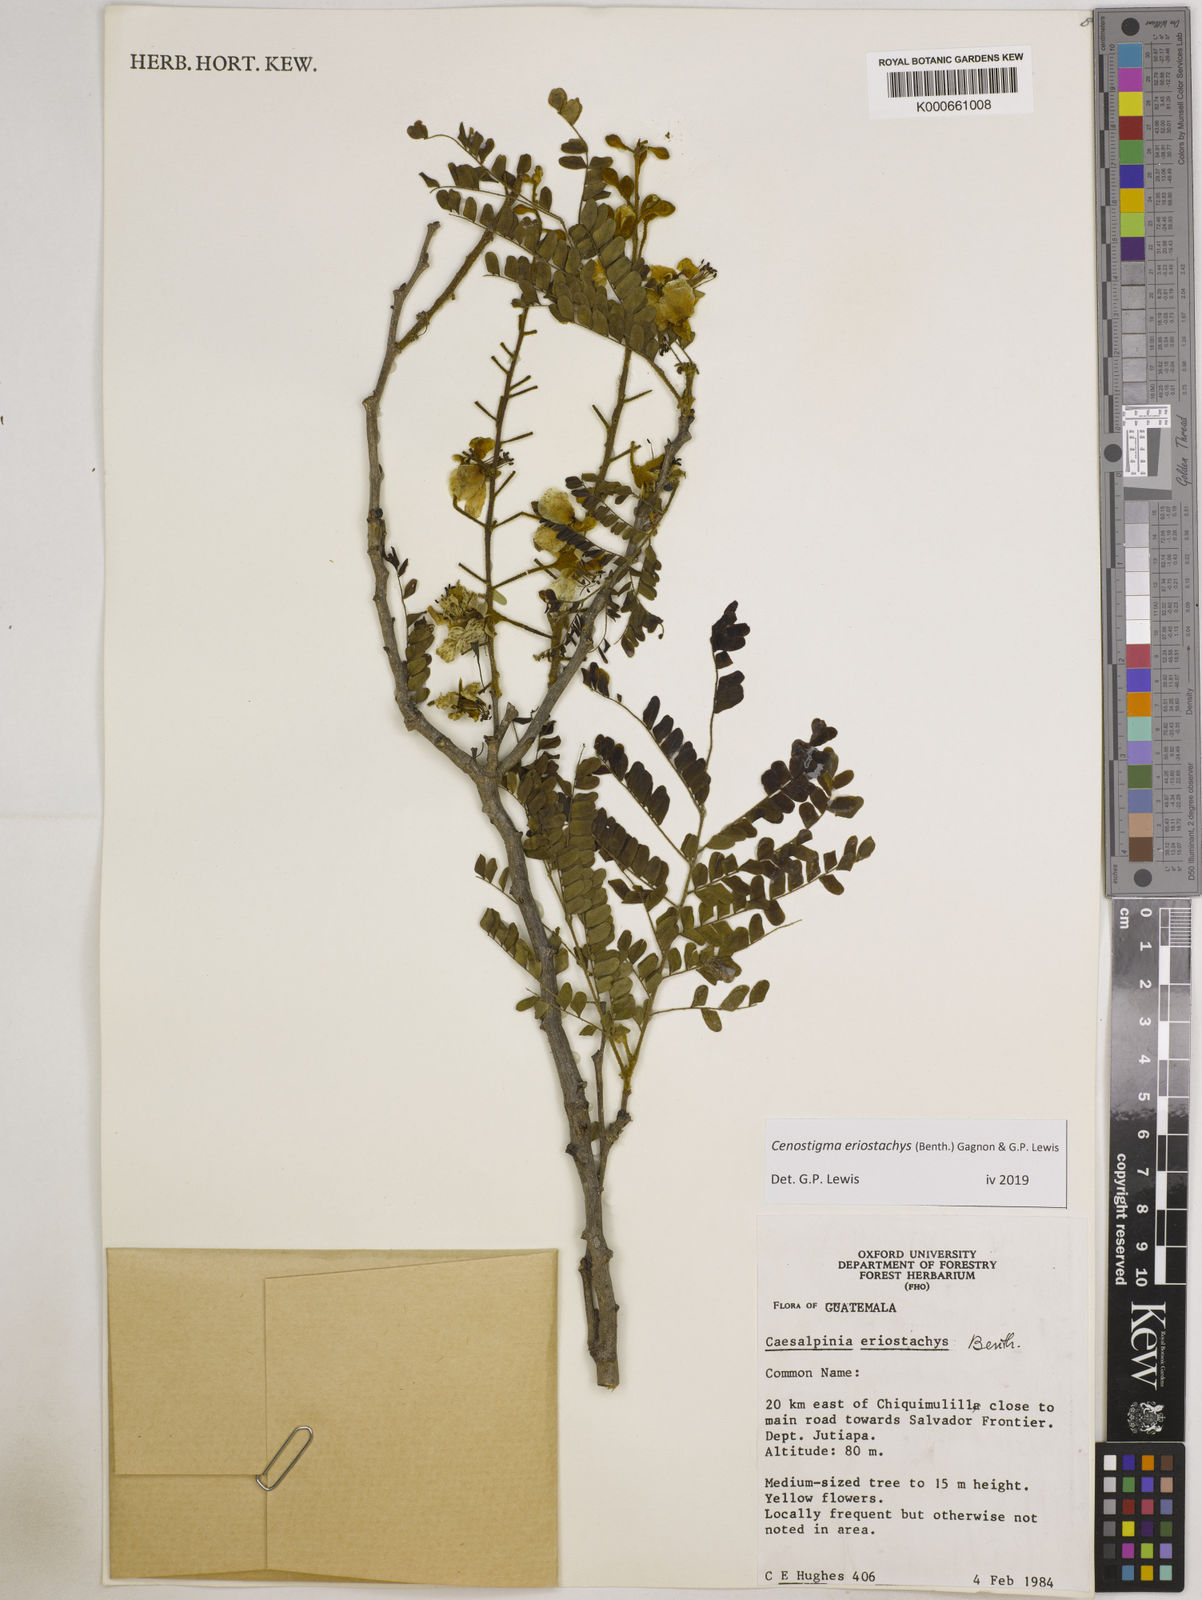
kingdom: Plantae
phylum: Tracheophyta
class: Magnoliopsida
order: Fabales
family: Fabaceae
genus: Cenostigma
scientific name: Cenostigma eriostachys
